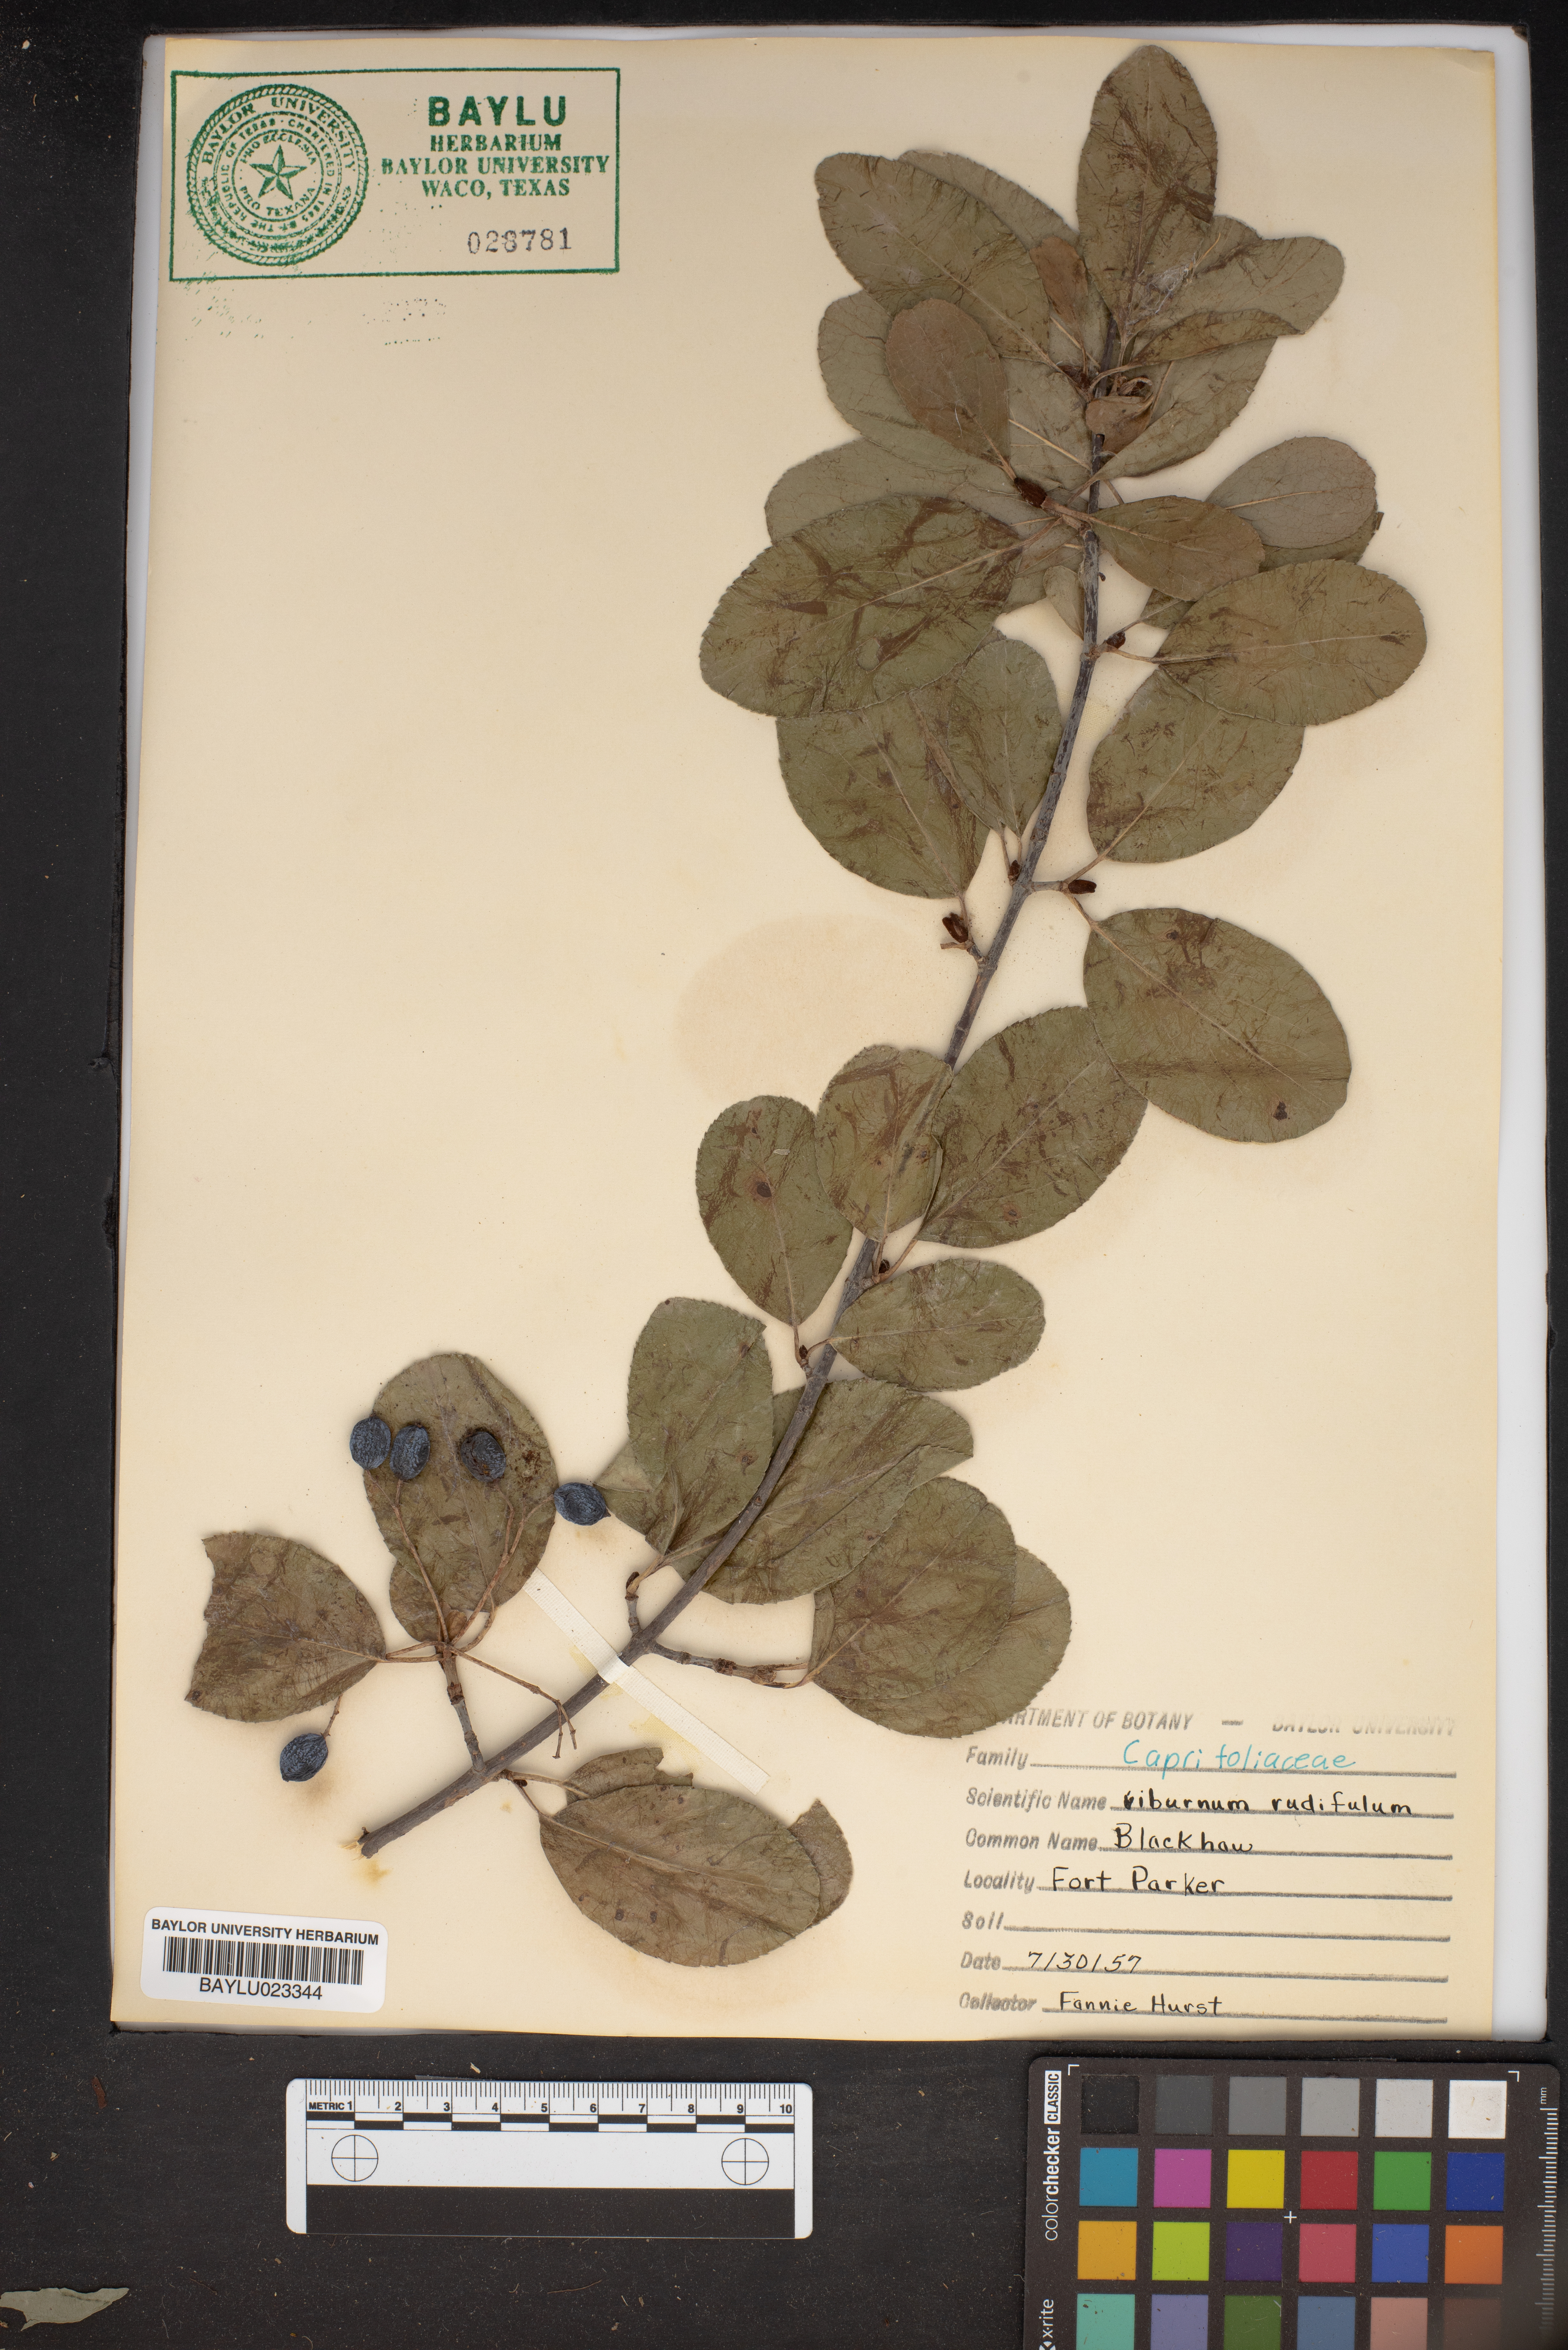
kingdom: Plantae
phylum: Tracheophyta
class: Magnoliopsida
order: Dipsacales
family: Viburnaceae
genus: Viburnum
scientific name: Viburnum rufidulum
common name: Blue haw
